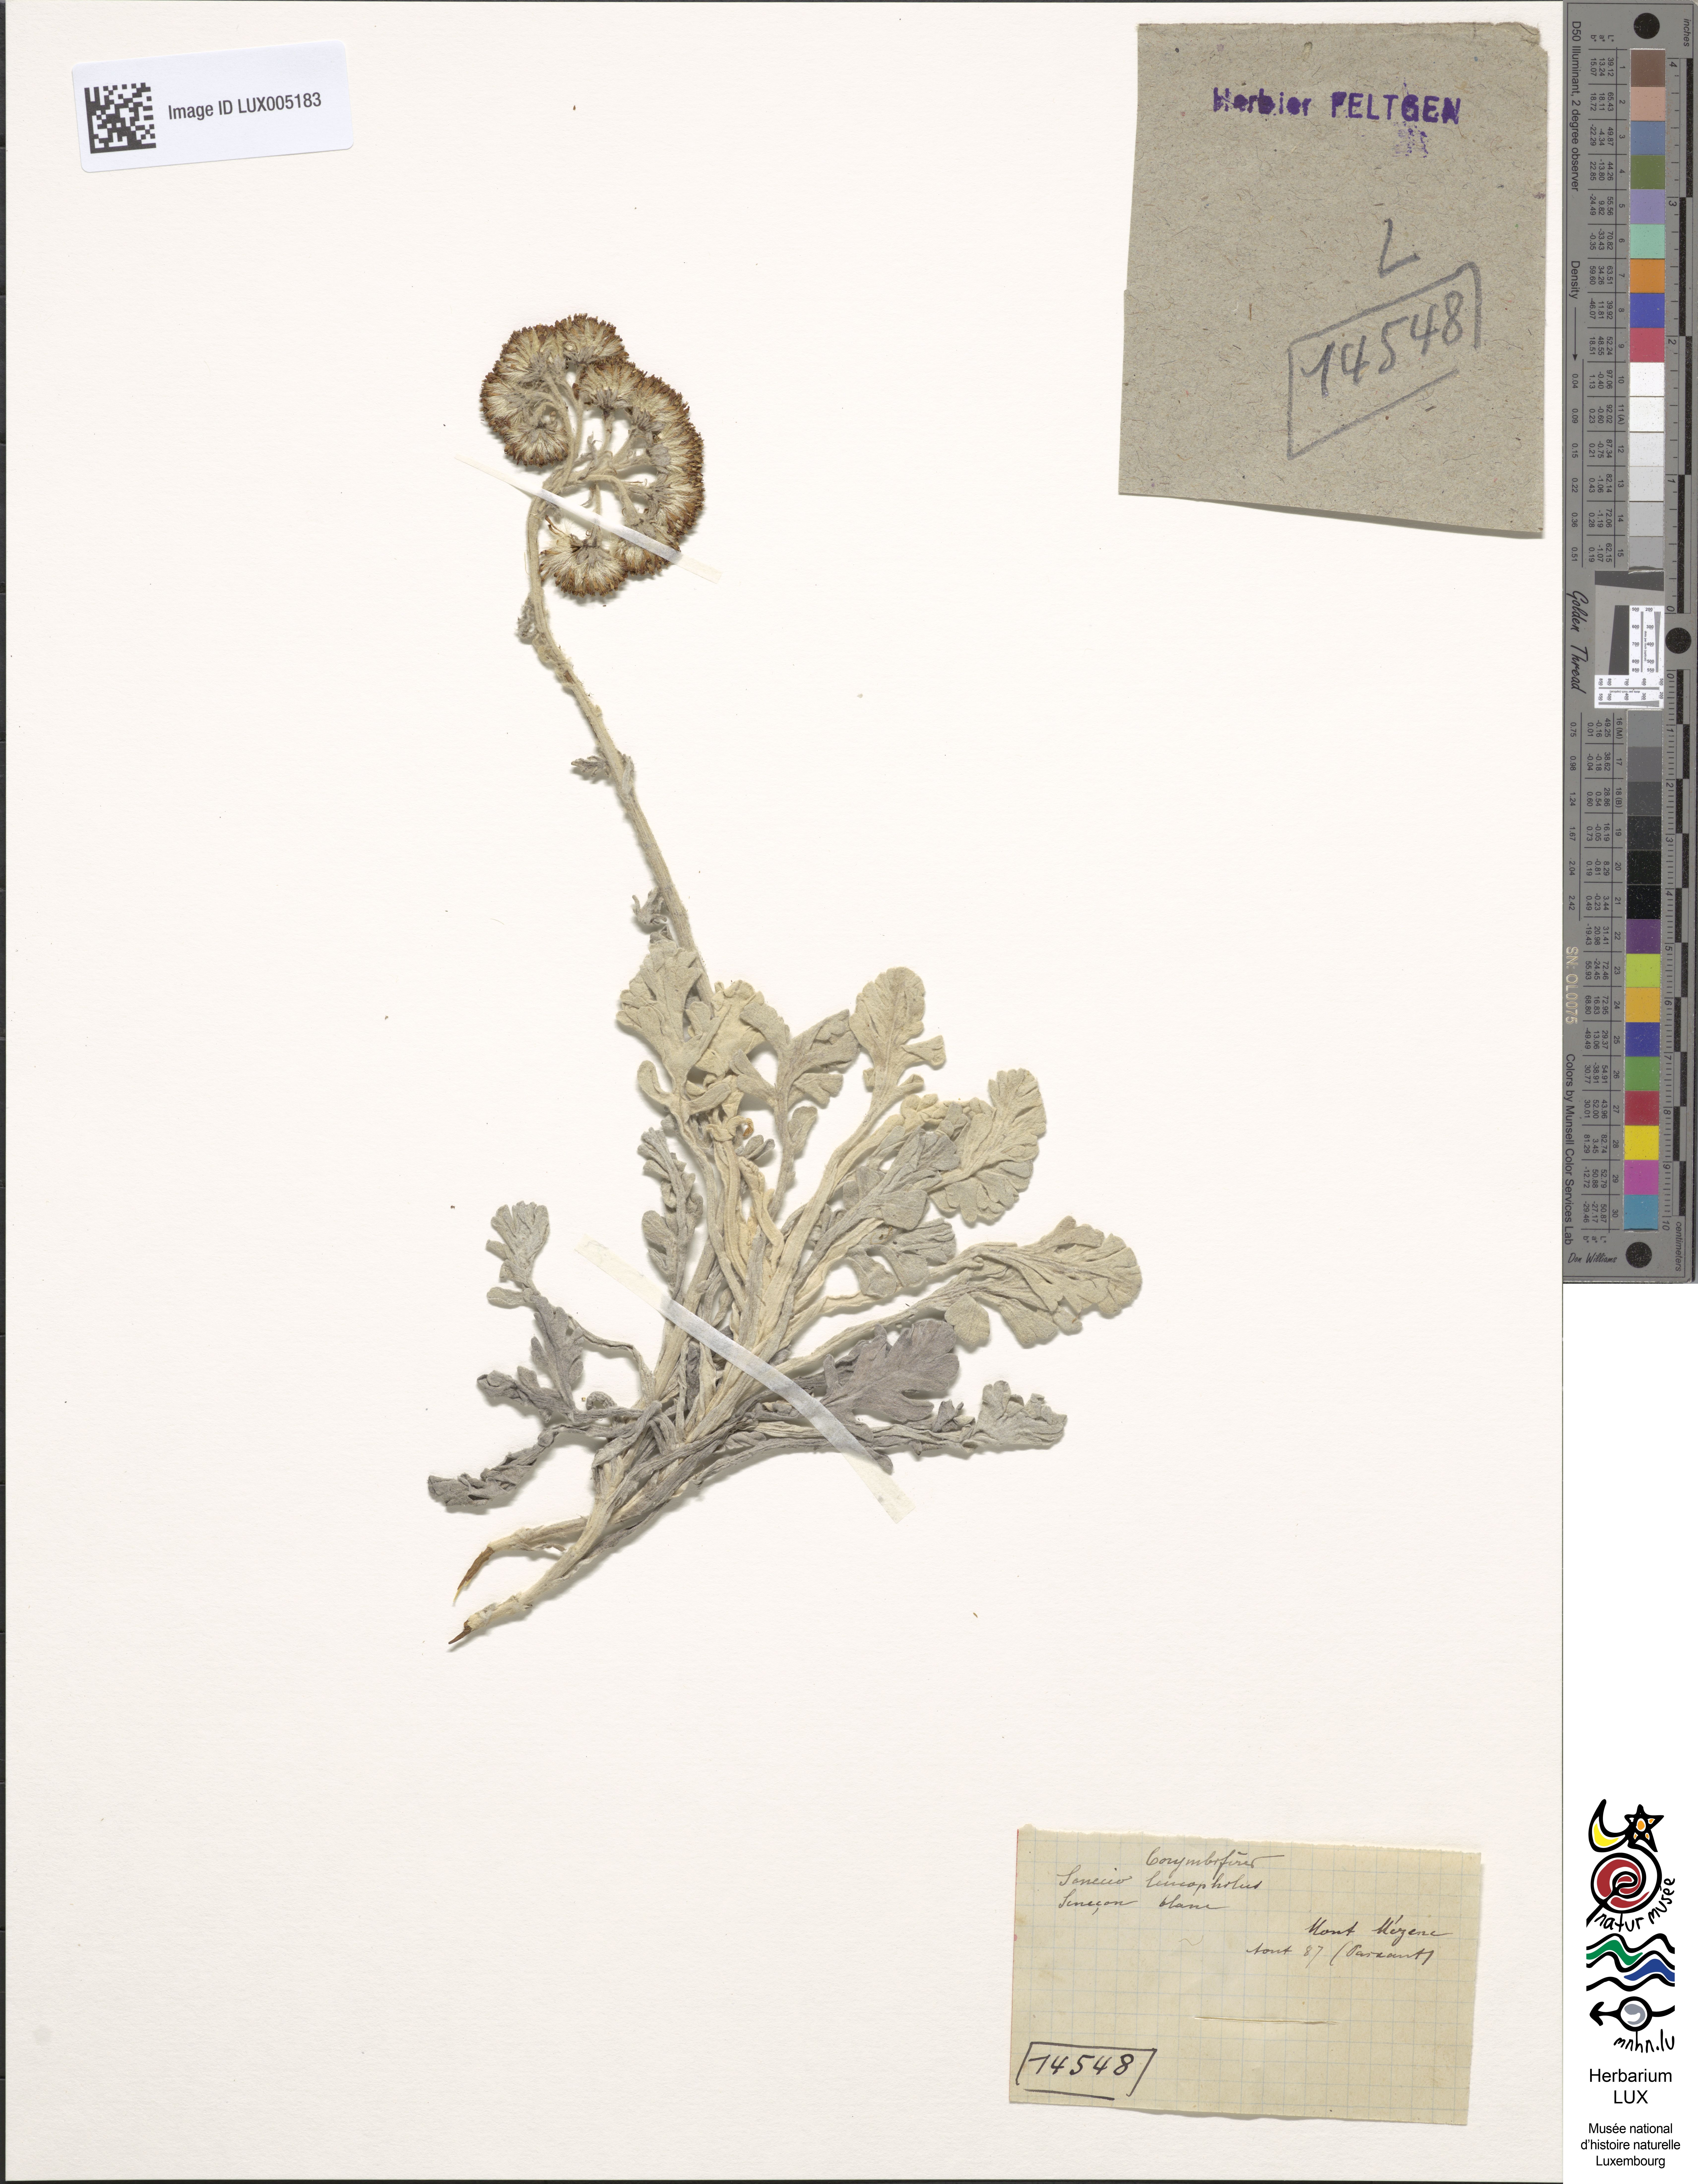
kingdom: Plantae
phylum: Tracheophyta
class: Magnoliopsida
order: Asterales
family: Asteraceae
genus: Jacobaea
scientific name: Jacobaea leucophylla
